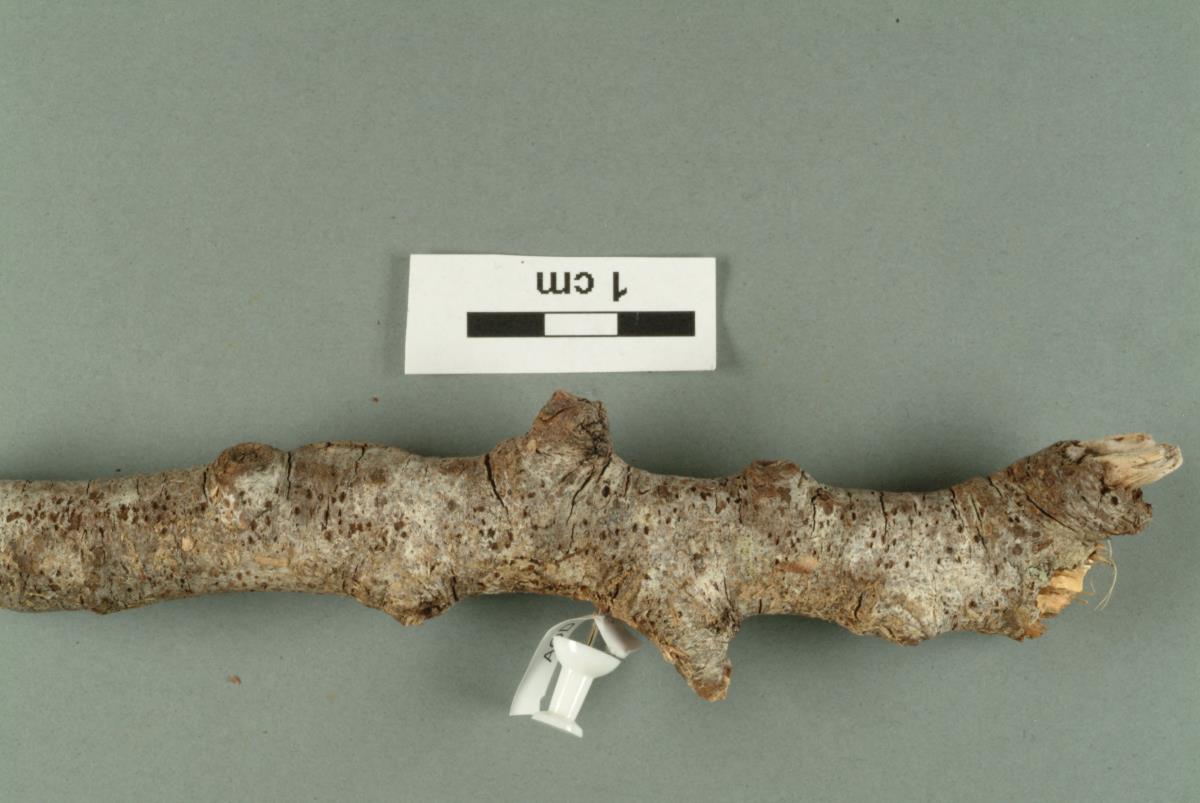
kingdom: Fungi
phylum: Basidiomycota
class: Agaricomycetes
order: Auriculariales
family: Auriculariaceae
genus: Pseudostypella
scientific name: Pseudostypella nothofagi
